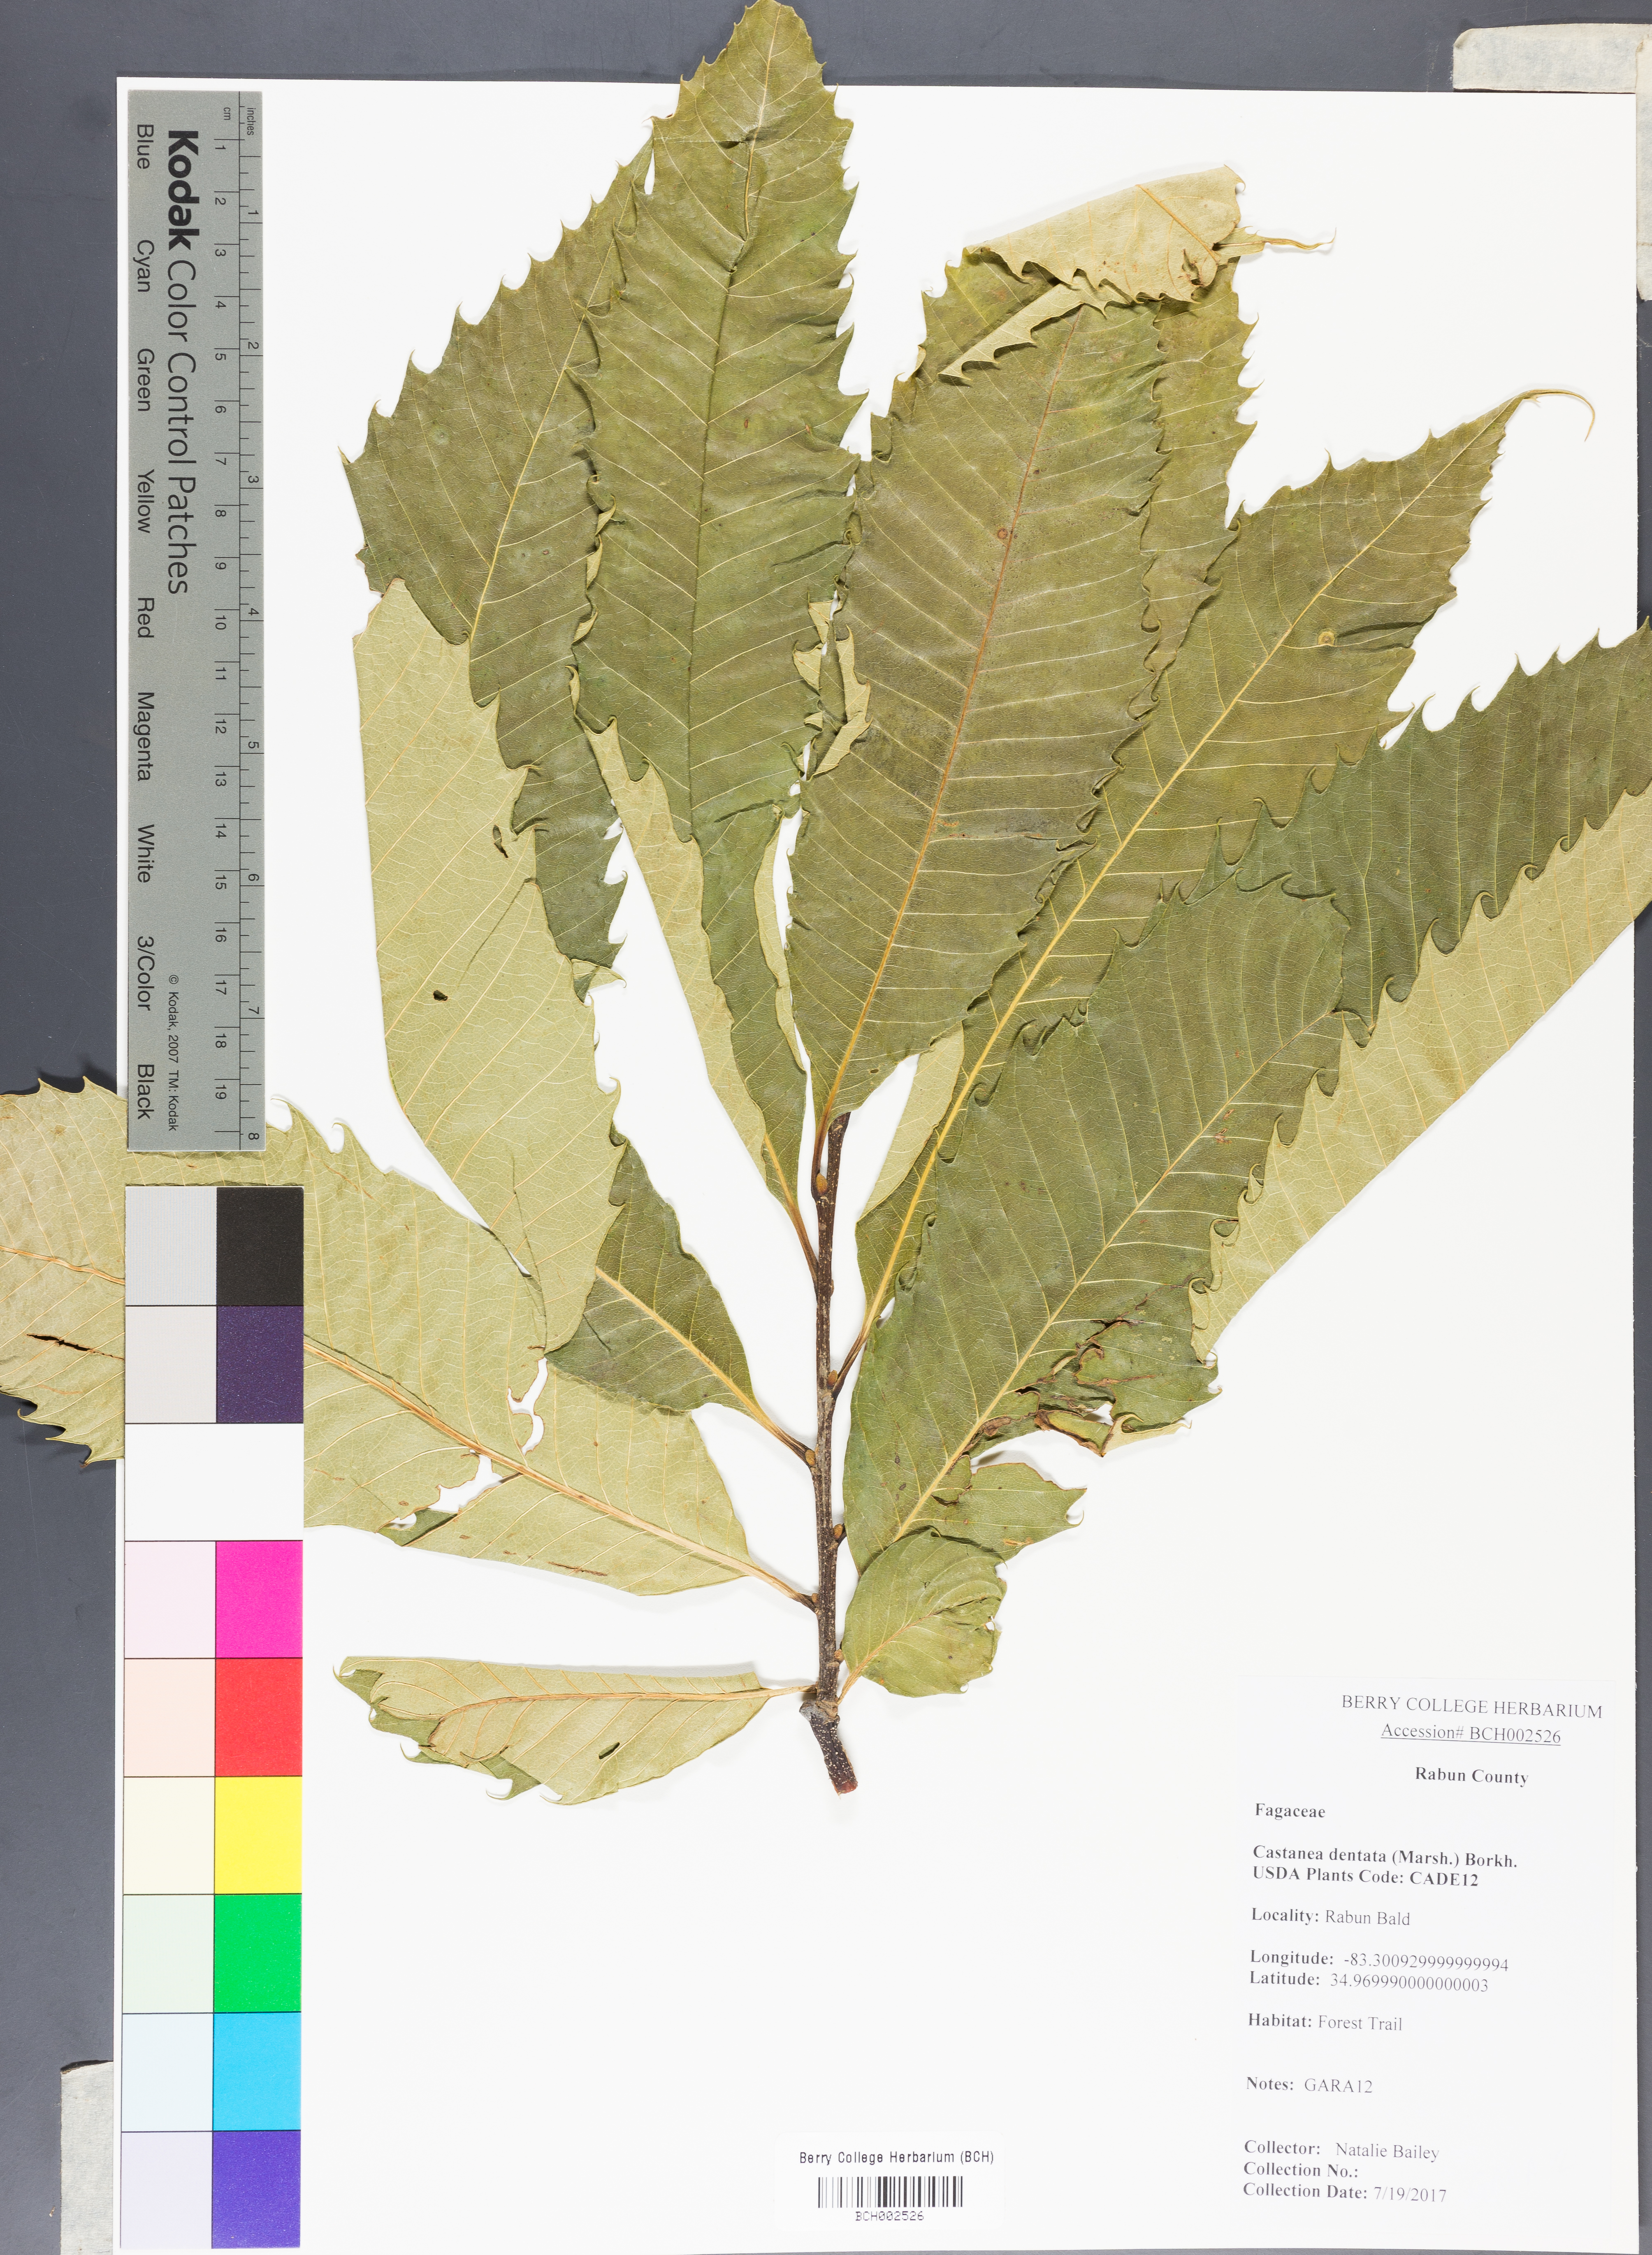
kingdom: Plantae
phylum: Tracheophyta
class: Magnoliopsida
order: Fagales
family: Fagaceae
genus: Castanea
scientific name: Castanea dentata
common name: American chestnut
